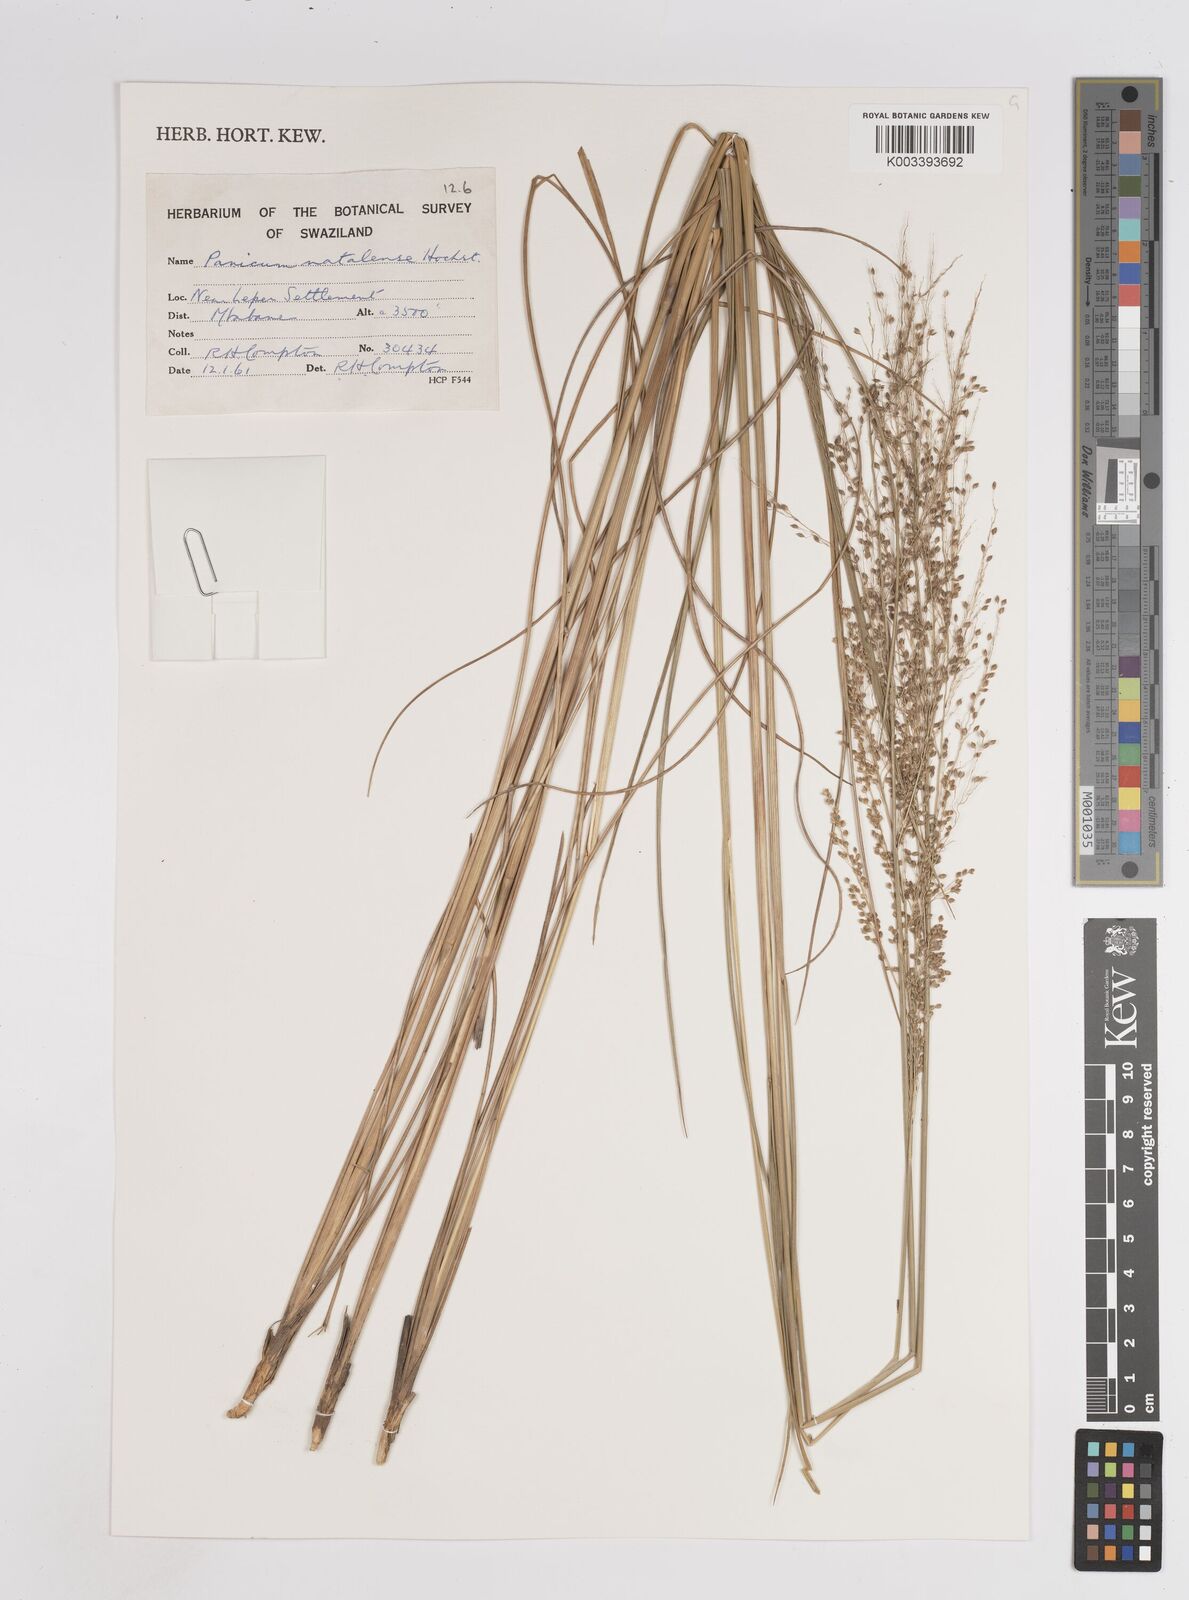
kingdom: Plantae
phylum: Tracheophyta
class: Liliopsida
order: Poales
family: Poaceae
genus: Trichanthecium
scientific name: Trichanthecium natalense
